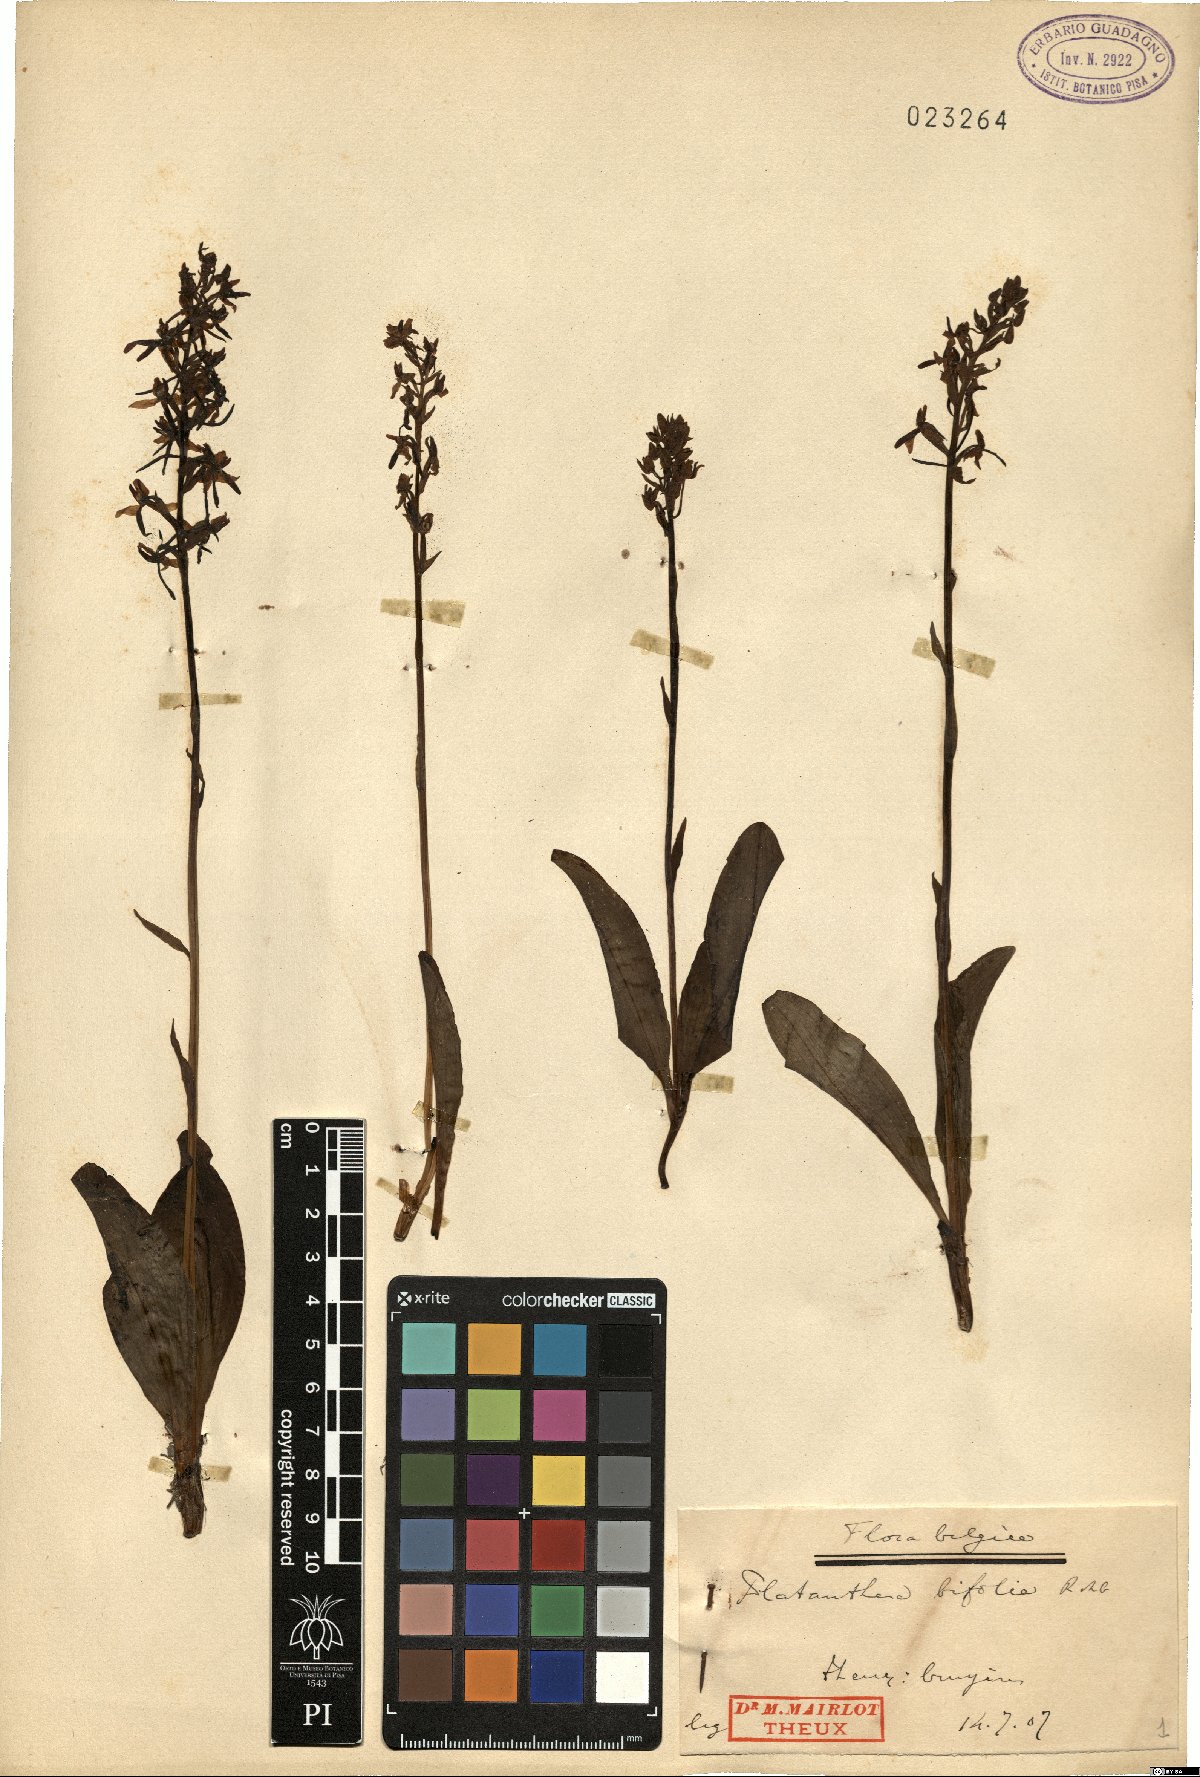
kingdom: Plantae
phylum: Tracheophyta
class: Liliopsida
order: Asparagales
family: Orchidaceae
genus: Platanthera
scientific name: Platanthera bifolia
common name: Lesser butterfly-orchid
